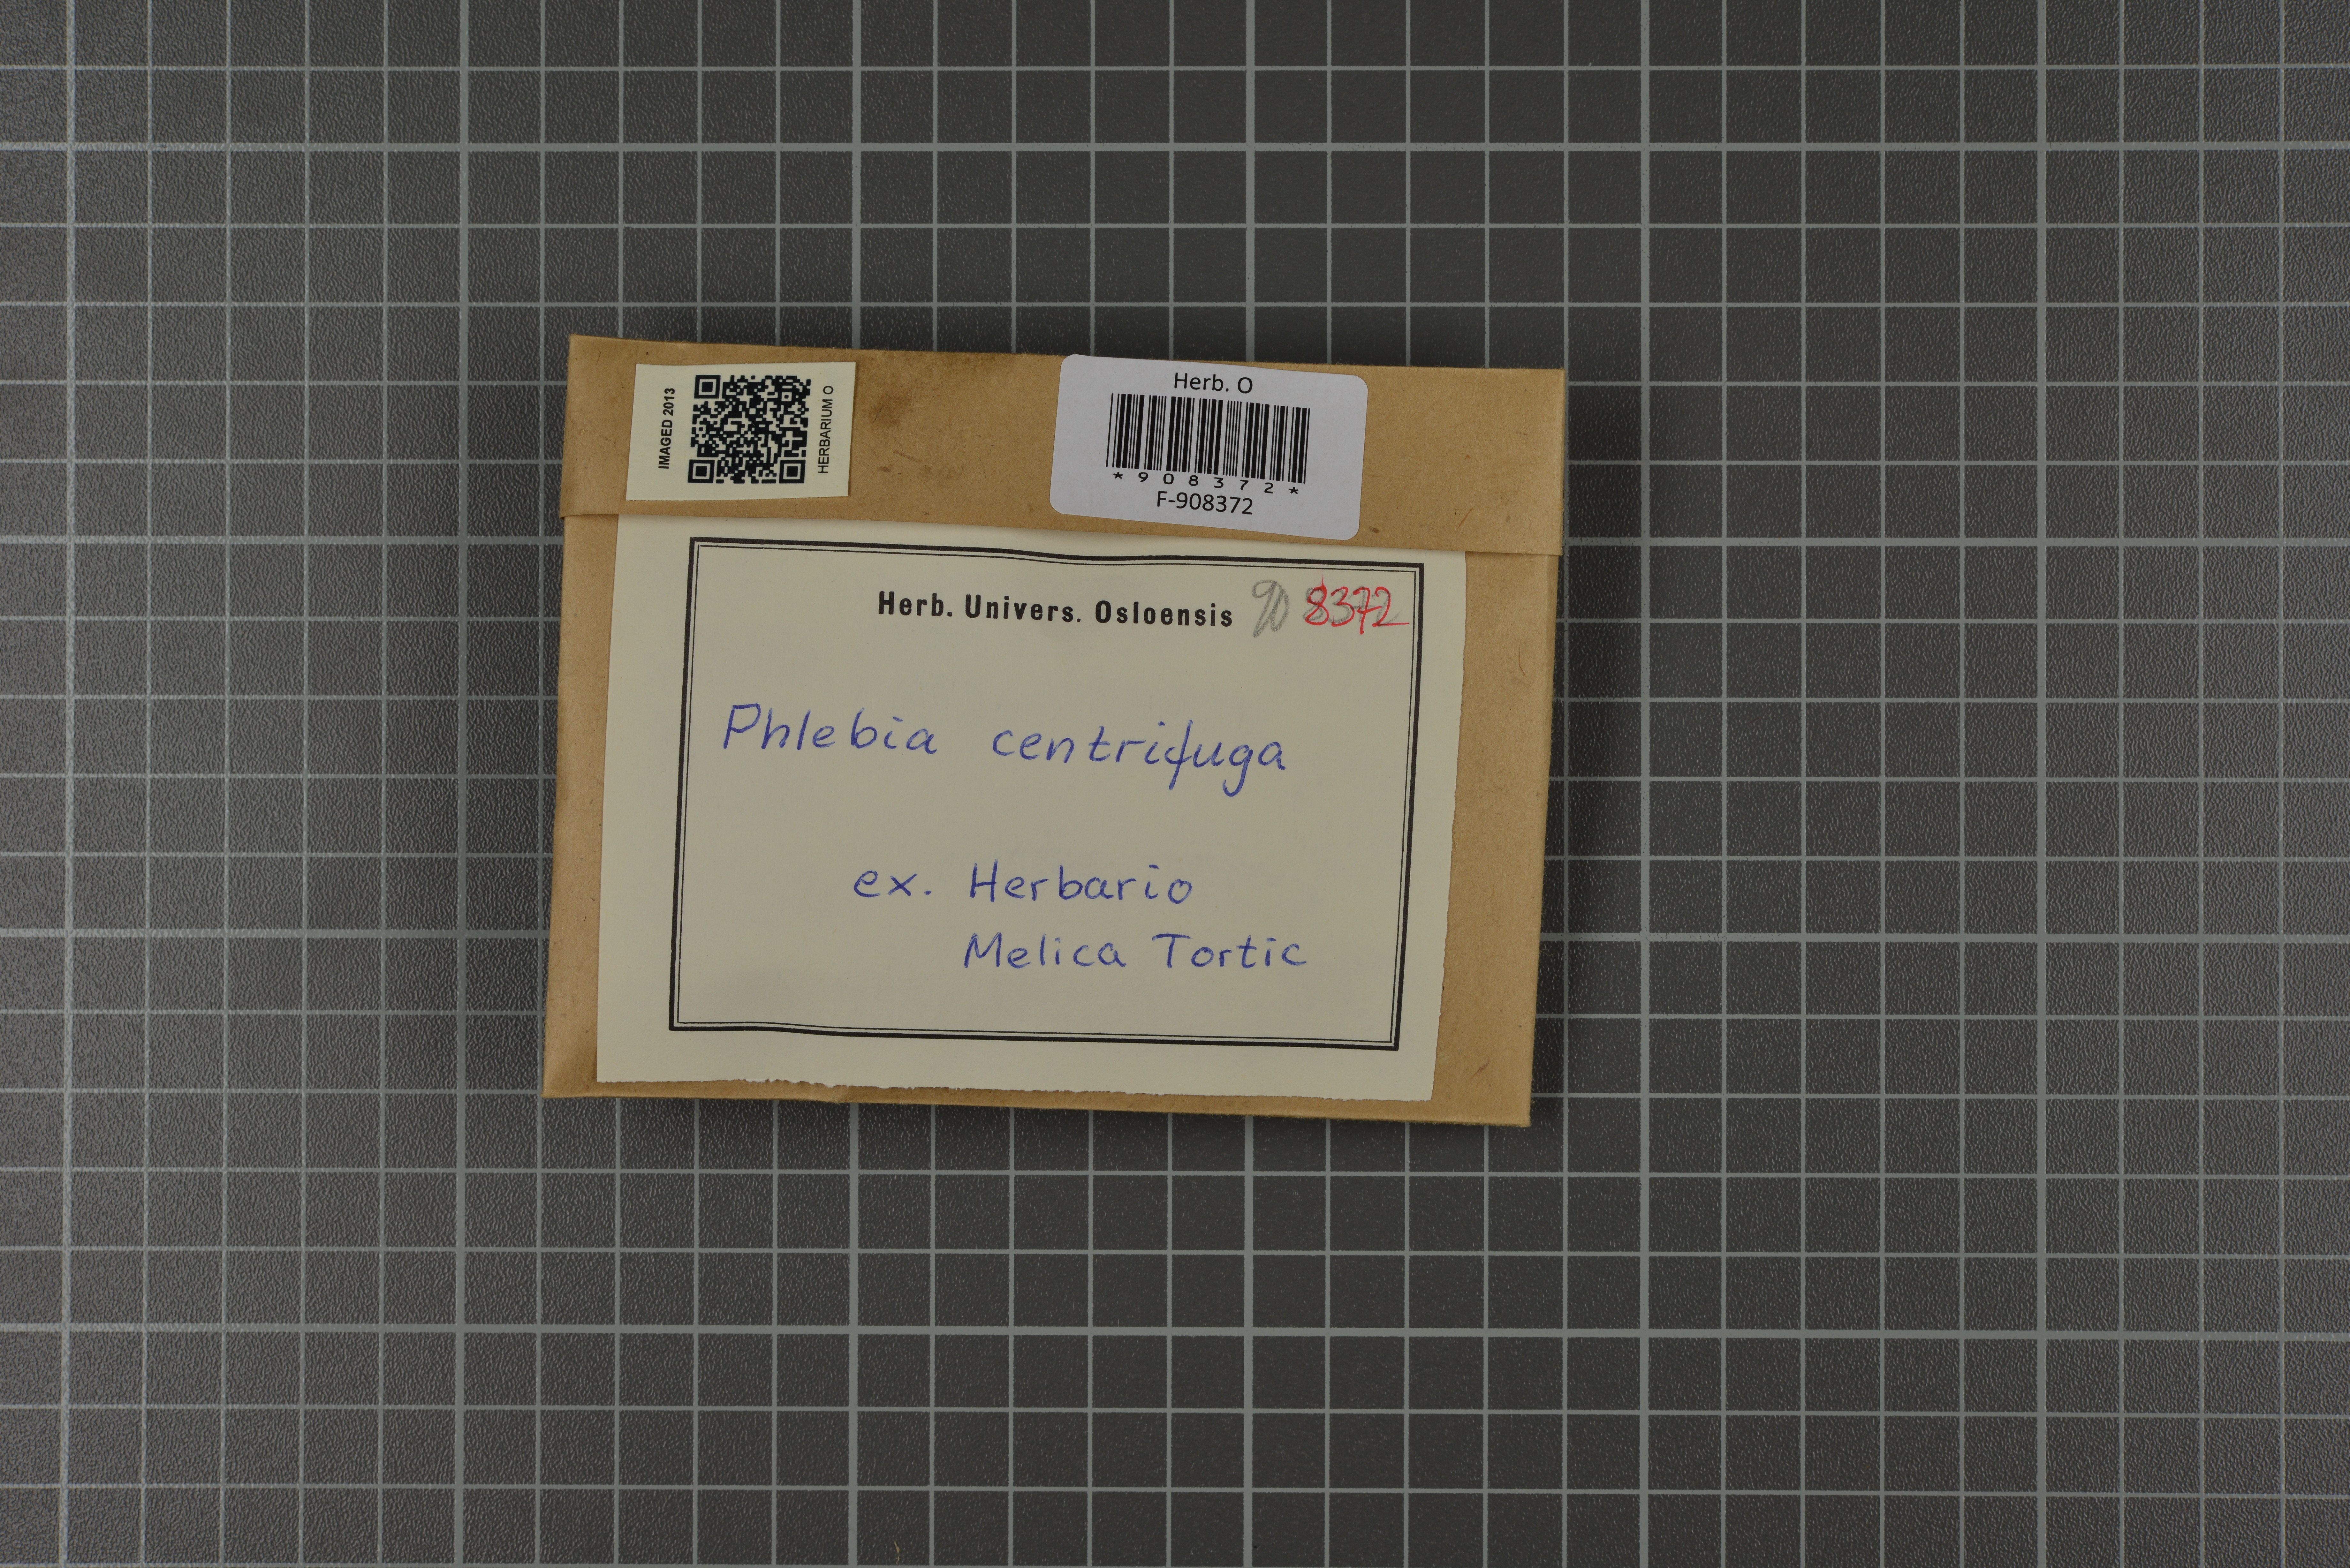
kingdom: Fungi
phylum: Basidiomycota
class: Agaricomycetes
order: Polyporales
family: Meruliaceae
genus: Hermanssonia
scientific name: Hermanssonia centrifuga
